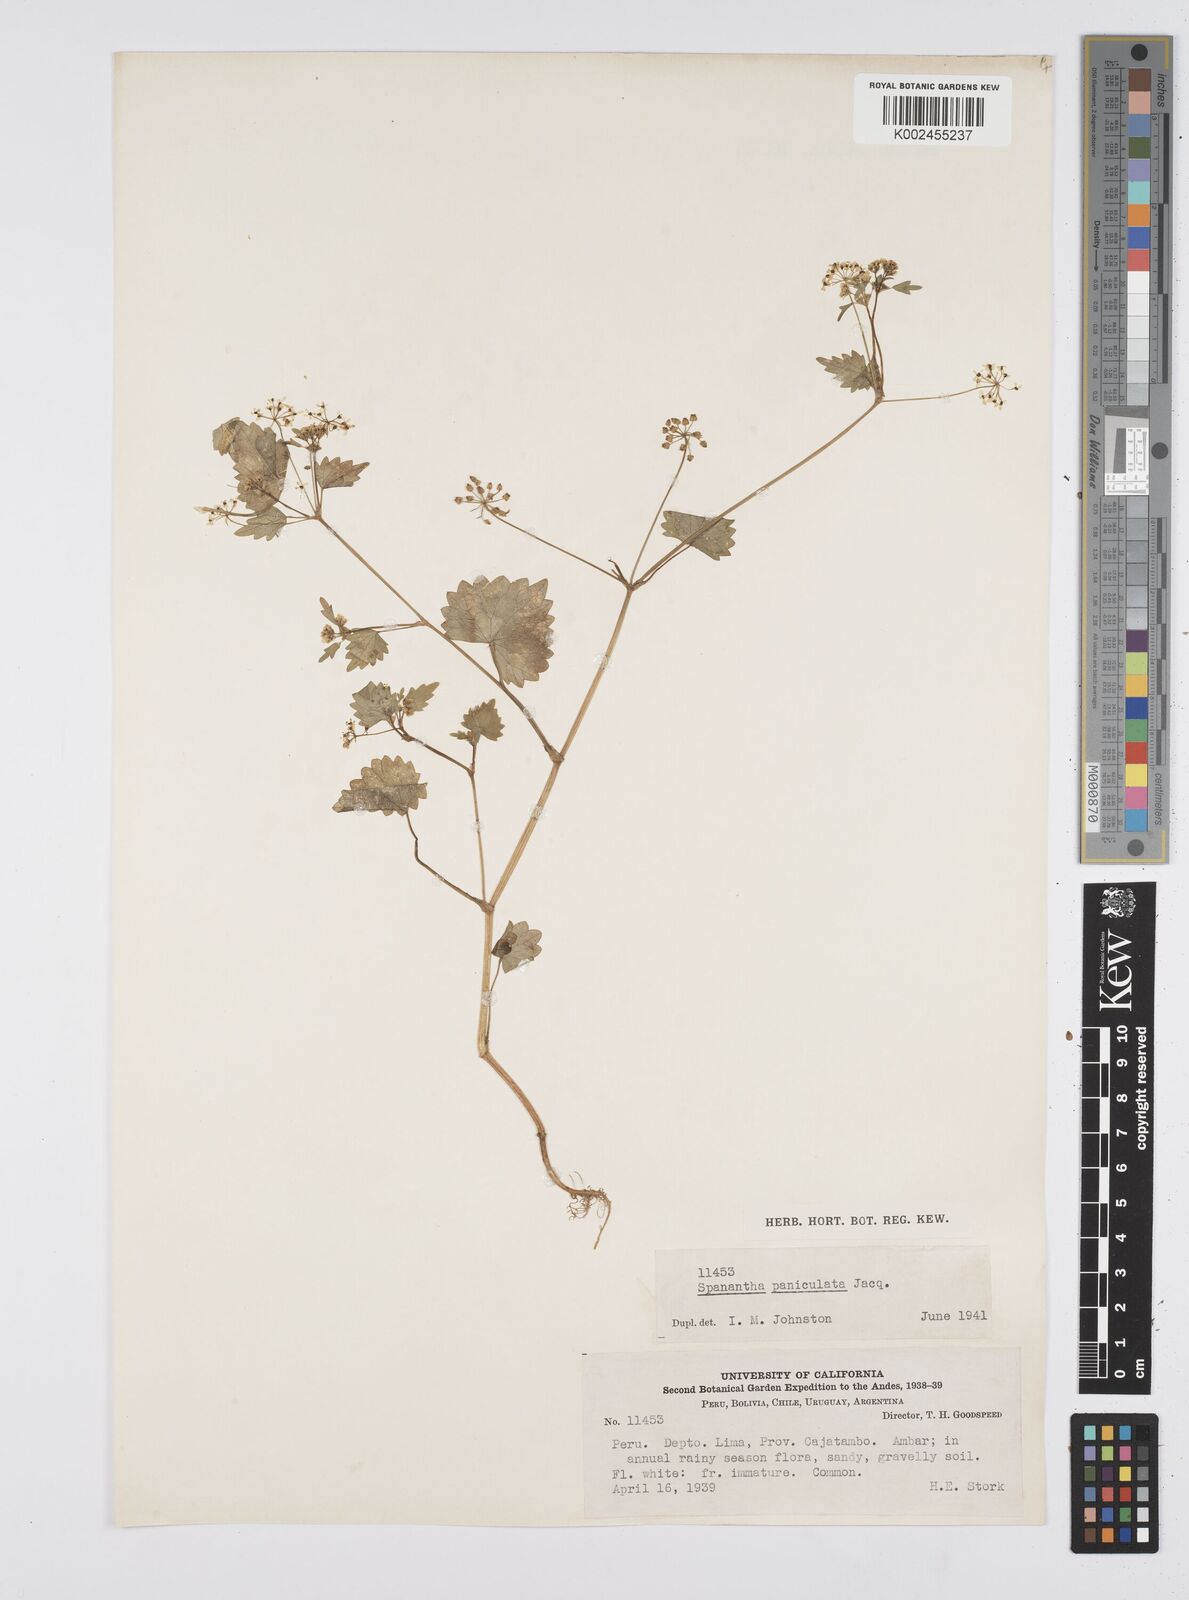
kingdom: Plantae
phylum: Tracheophyta
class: Magnoliopsida
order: Apiales
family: Apiaceae
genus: Azorella
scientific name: Azorella
